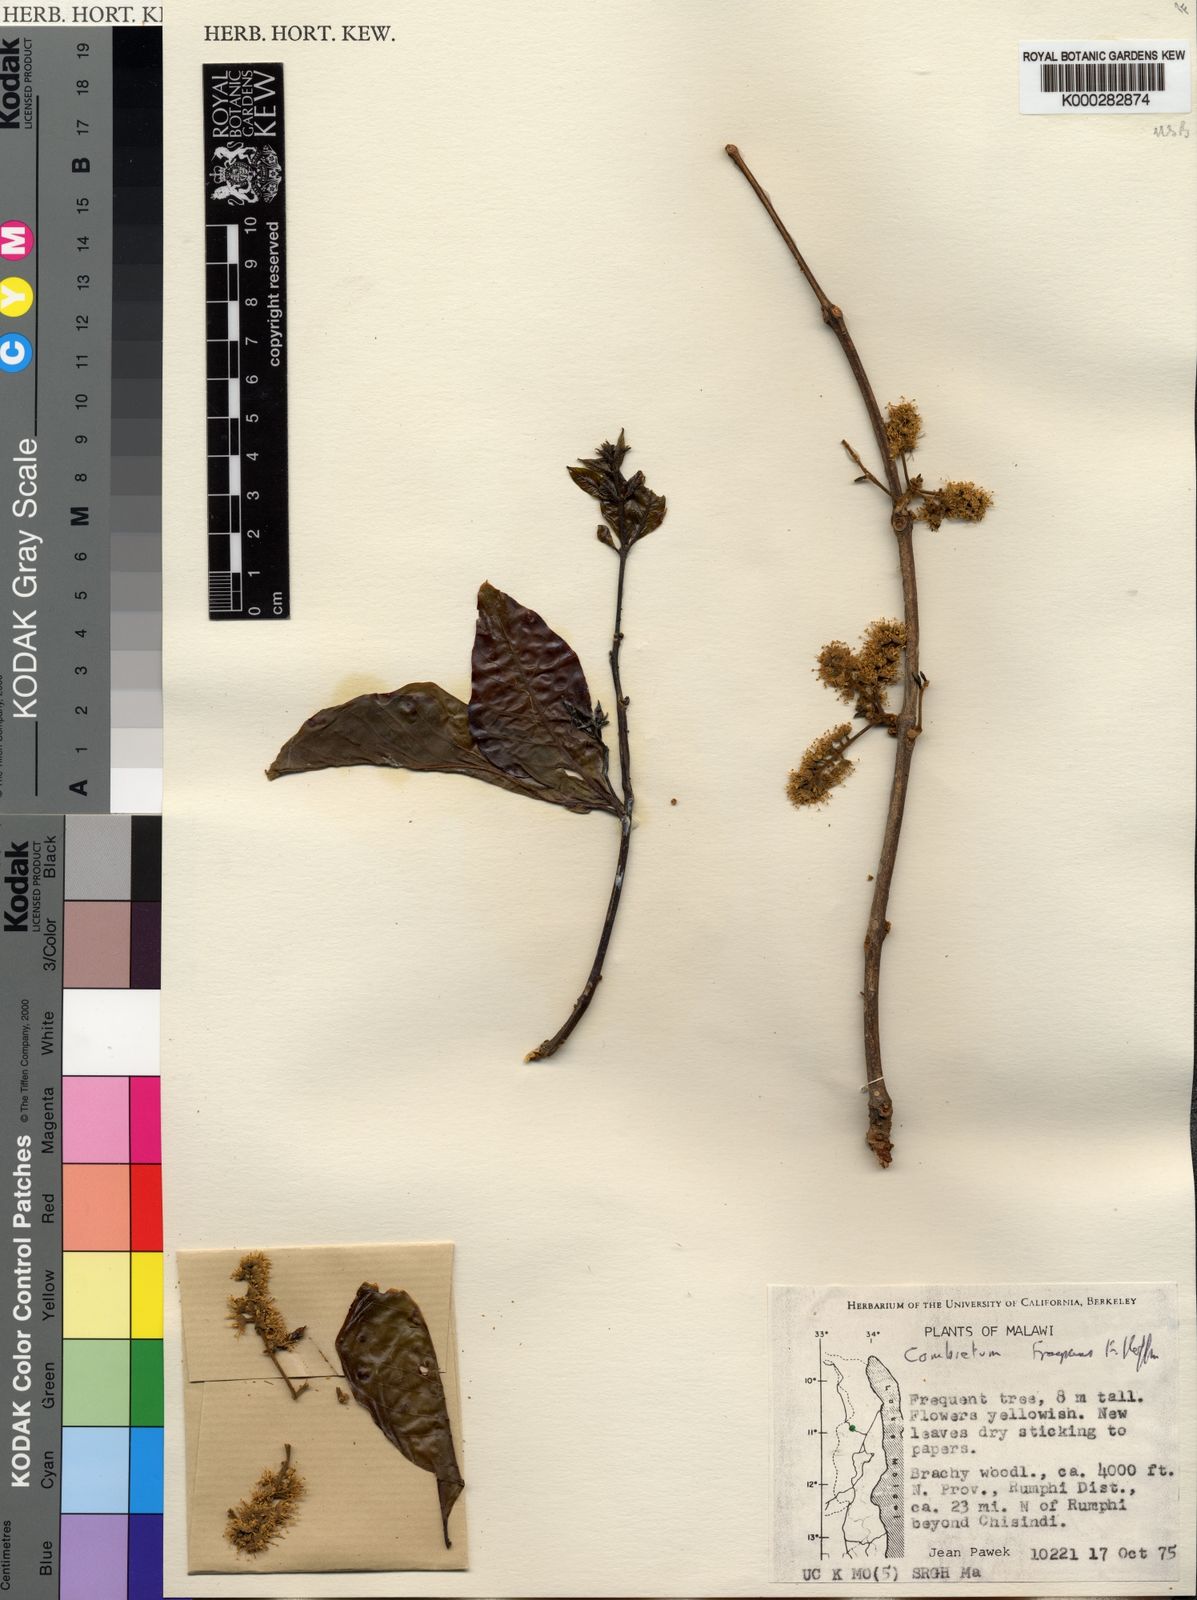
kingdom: Plantae
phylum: Tracheophyta
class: Magnoliopsida
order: Myrtales
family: Combretaceae
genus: Combretum
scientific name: Combretum adenogonium
